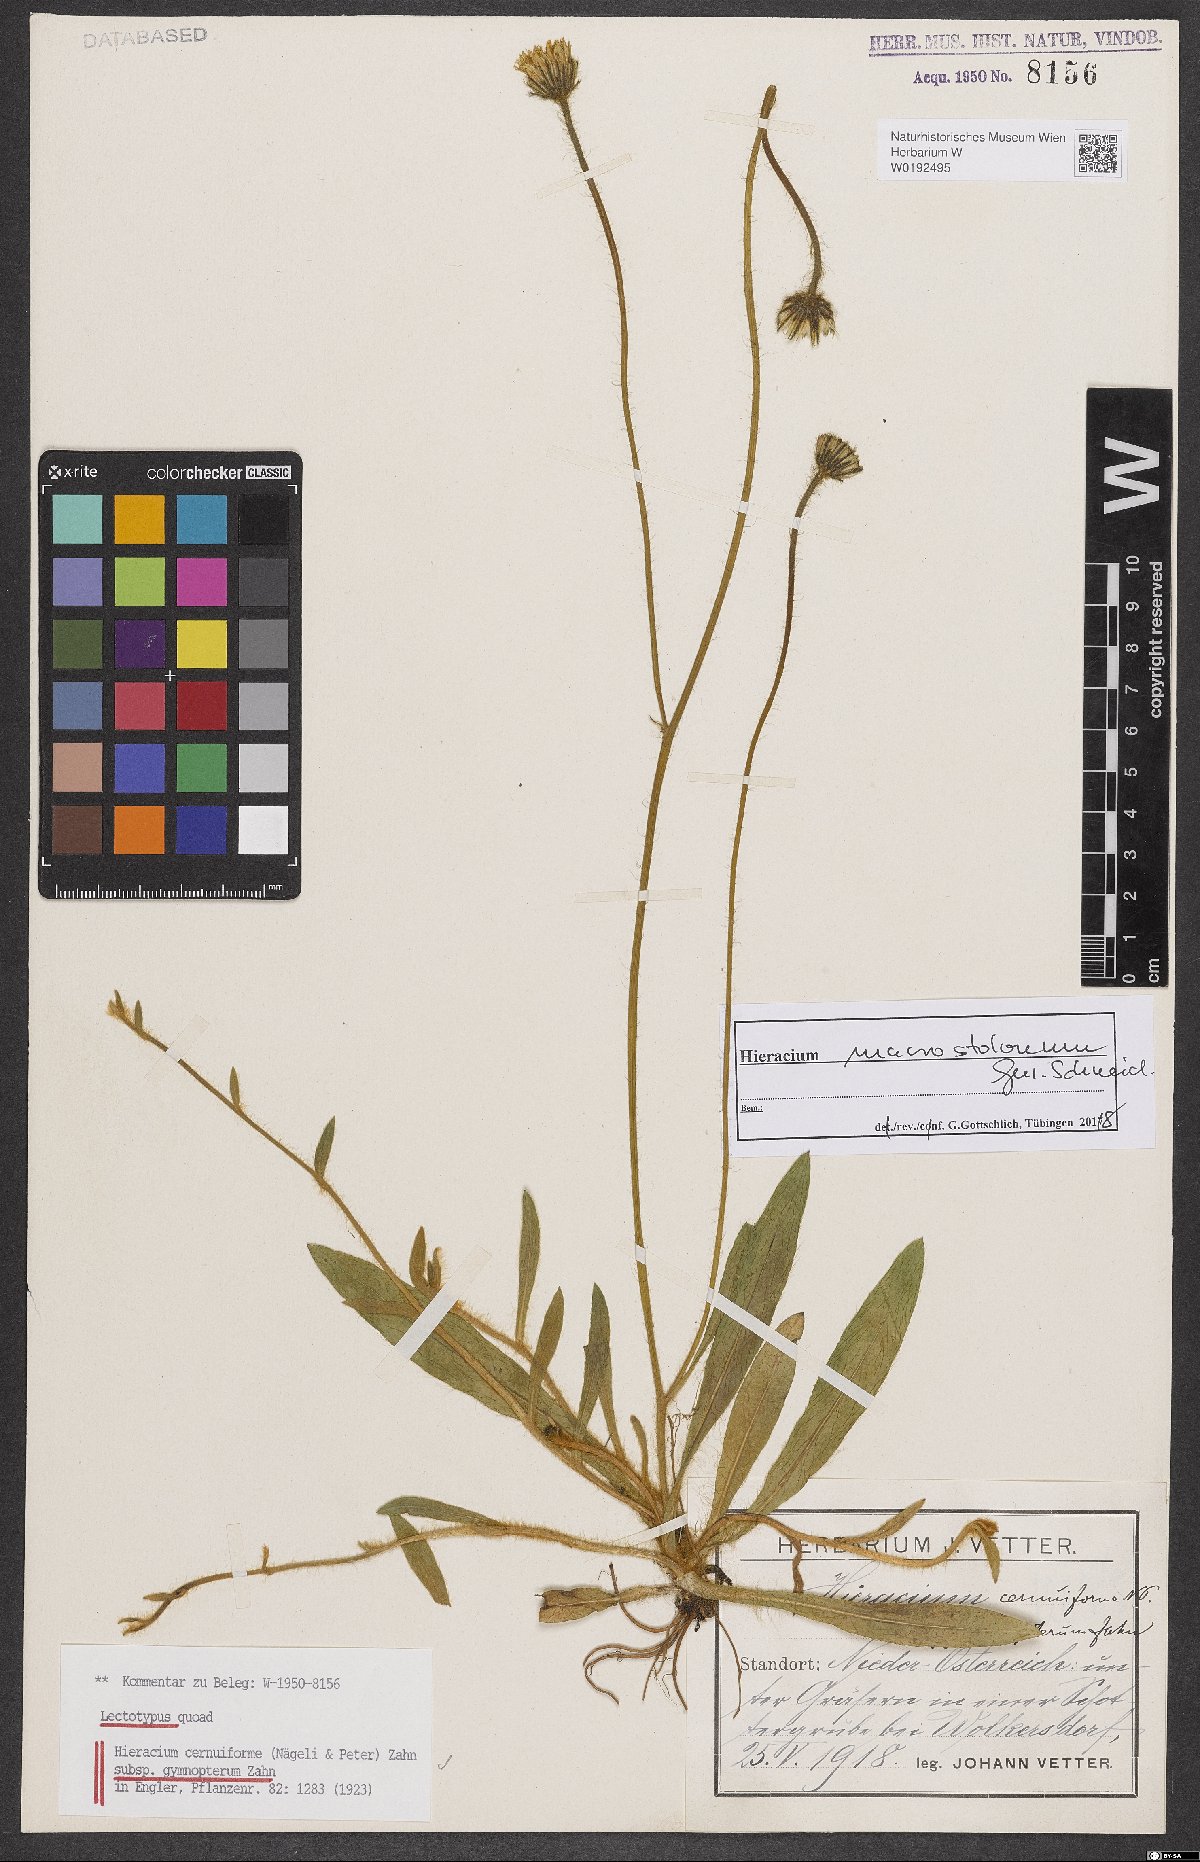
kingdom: Plantae
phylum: Tracheophyta
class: Magnoliopsida
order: Asterales
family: Asteraceae
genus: Hieracium
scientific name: Hieracium cernuiforme
